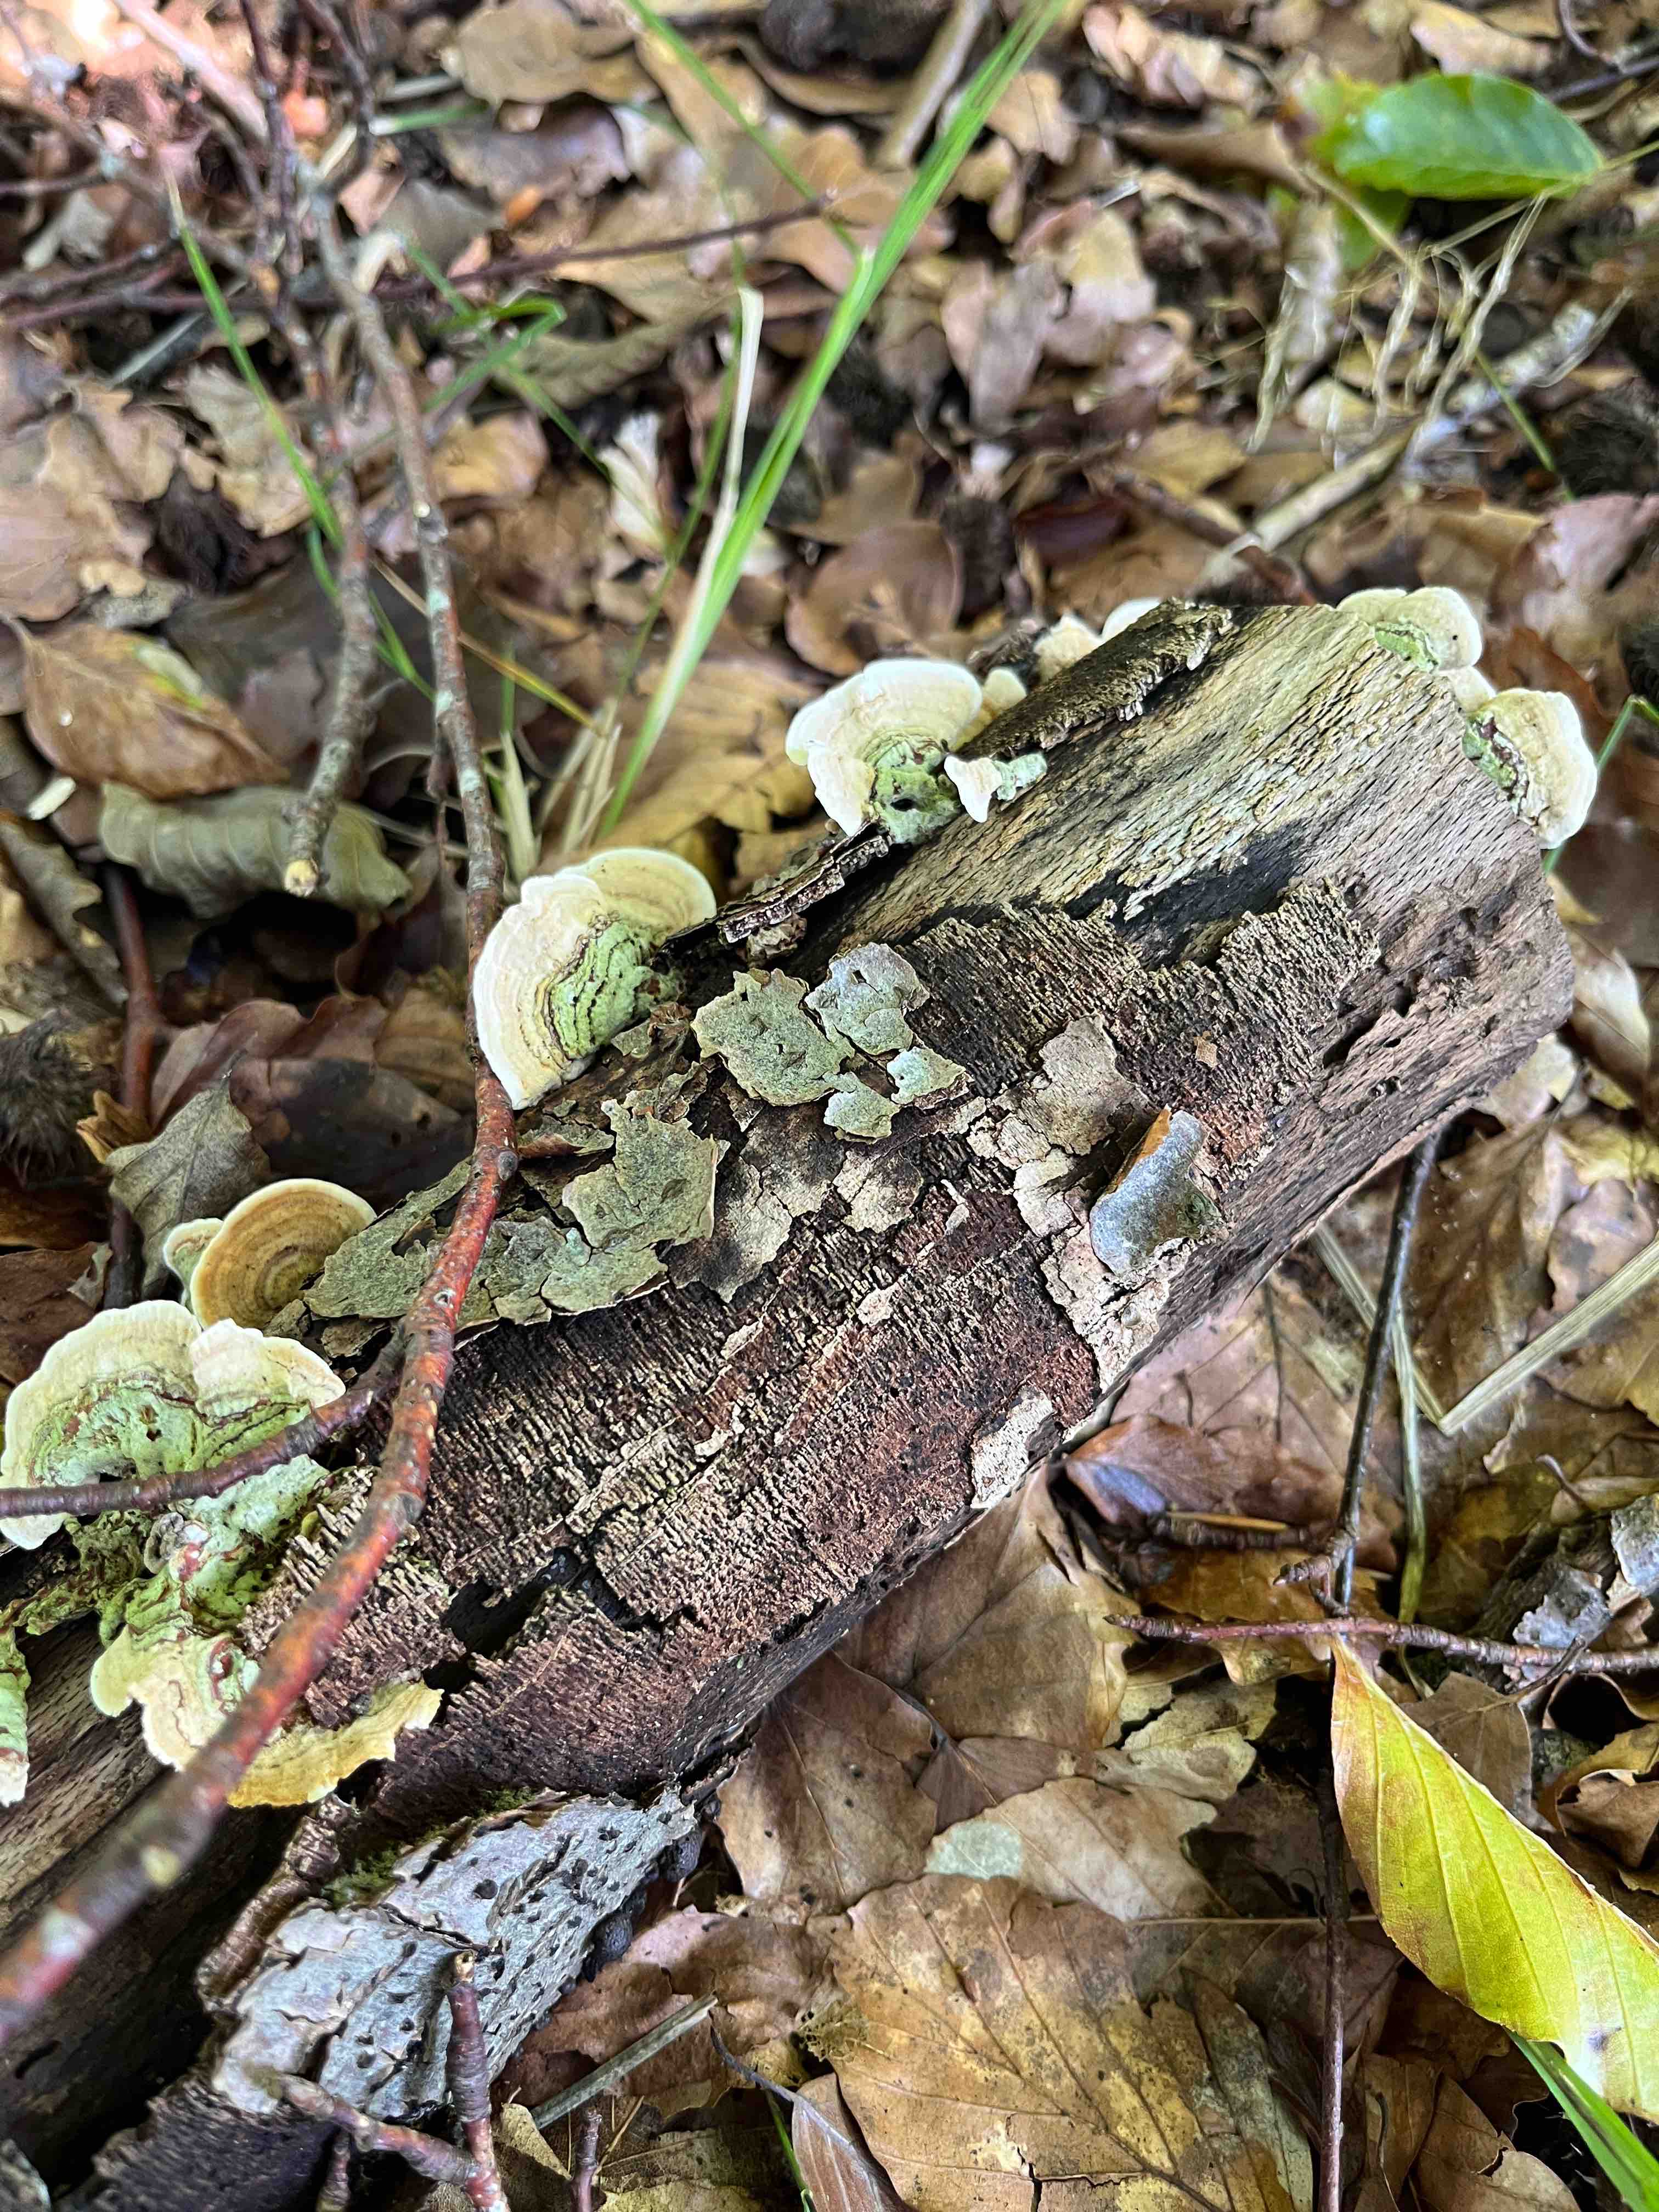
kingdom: Fungi
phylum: Basidiomycota
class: Agaricomycetes
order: Polyporales
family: Polyporaceae
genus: Trametes
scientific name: Trametes hirsuta
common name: håret læderporesvamp
